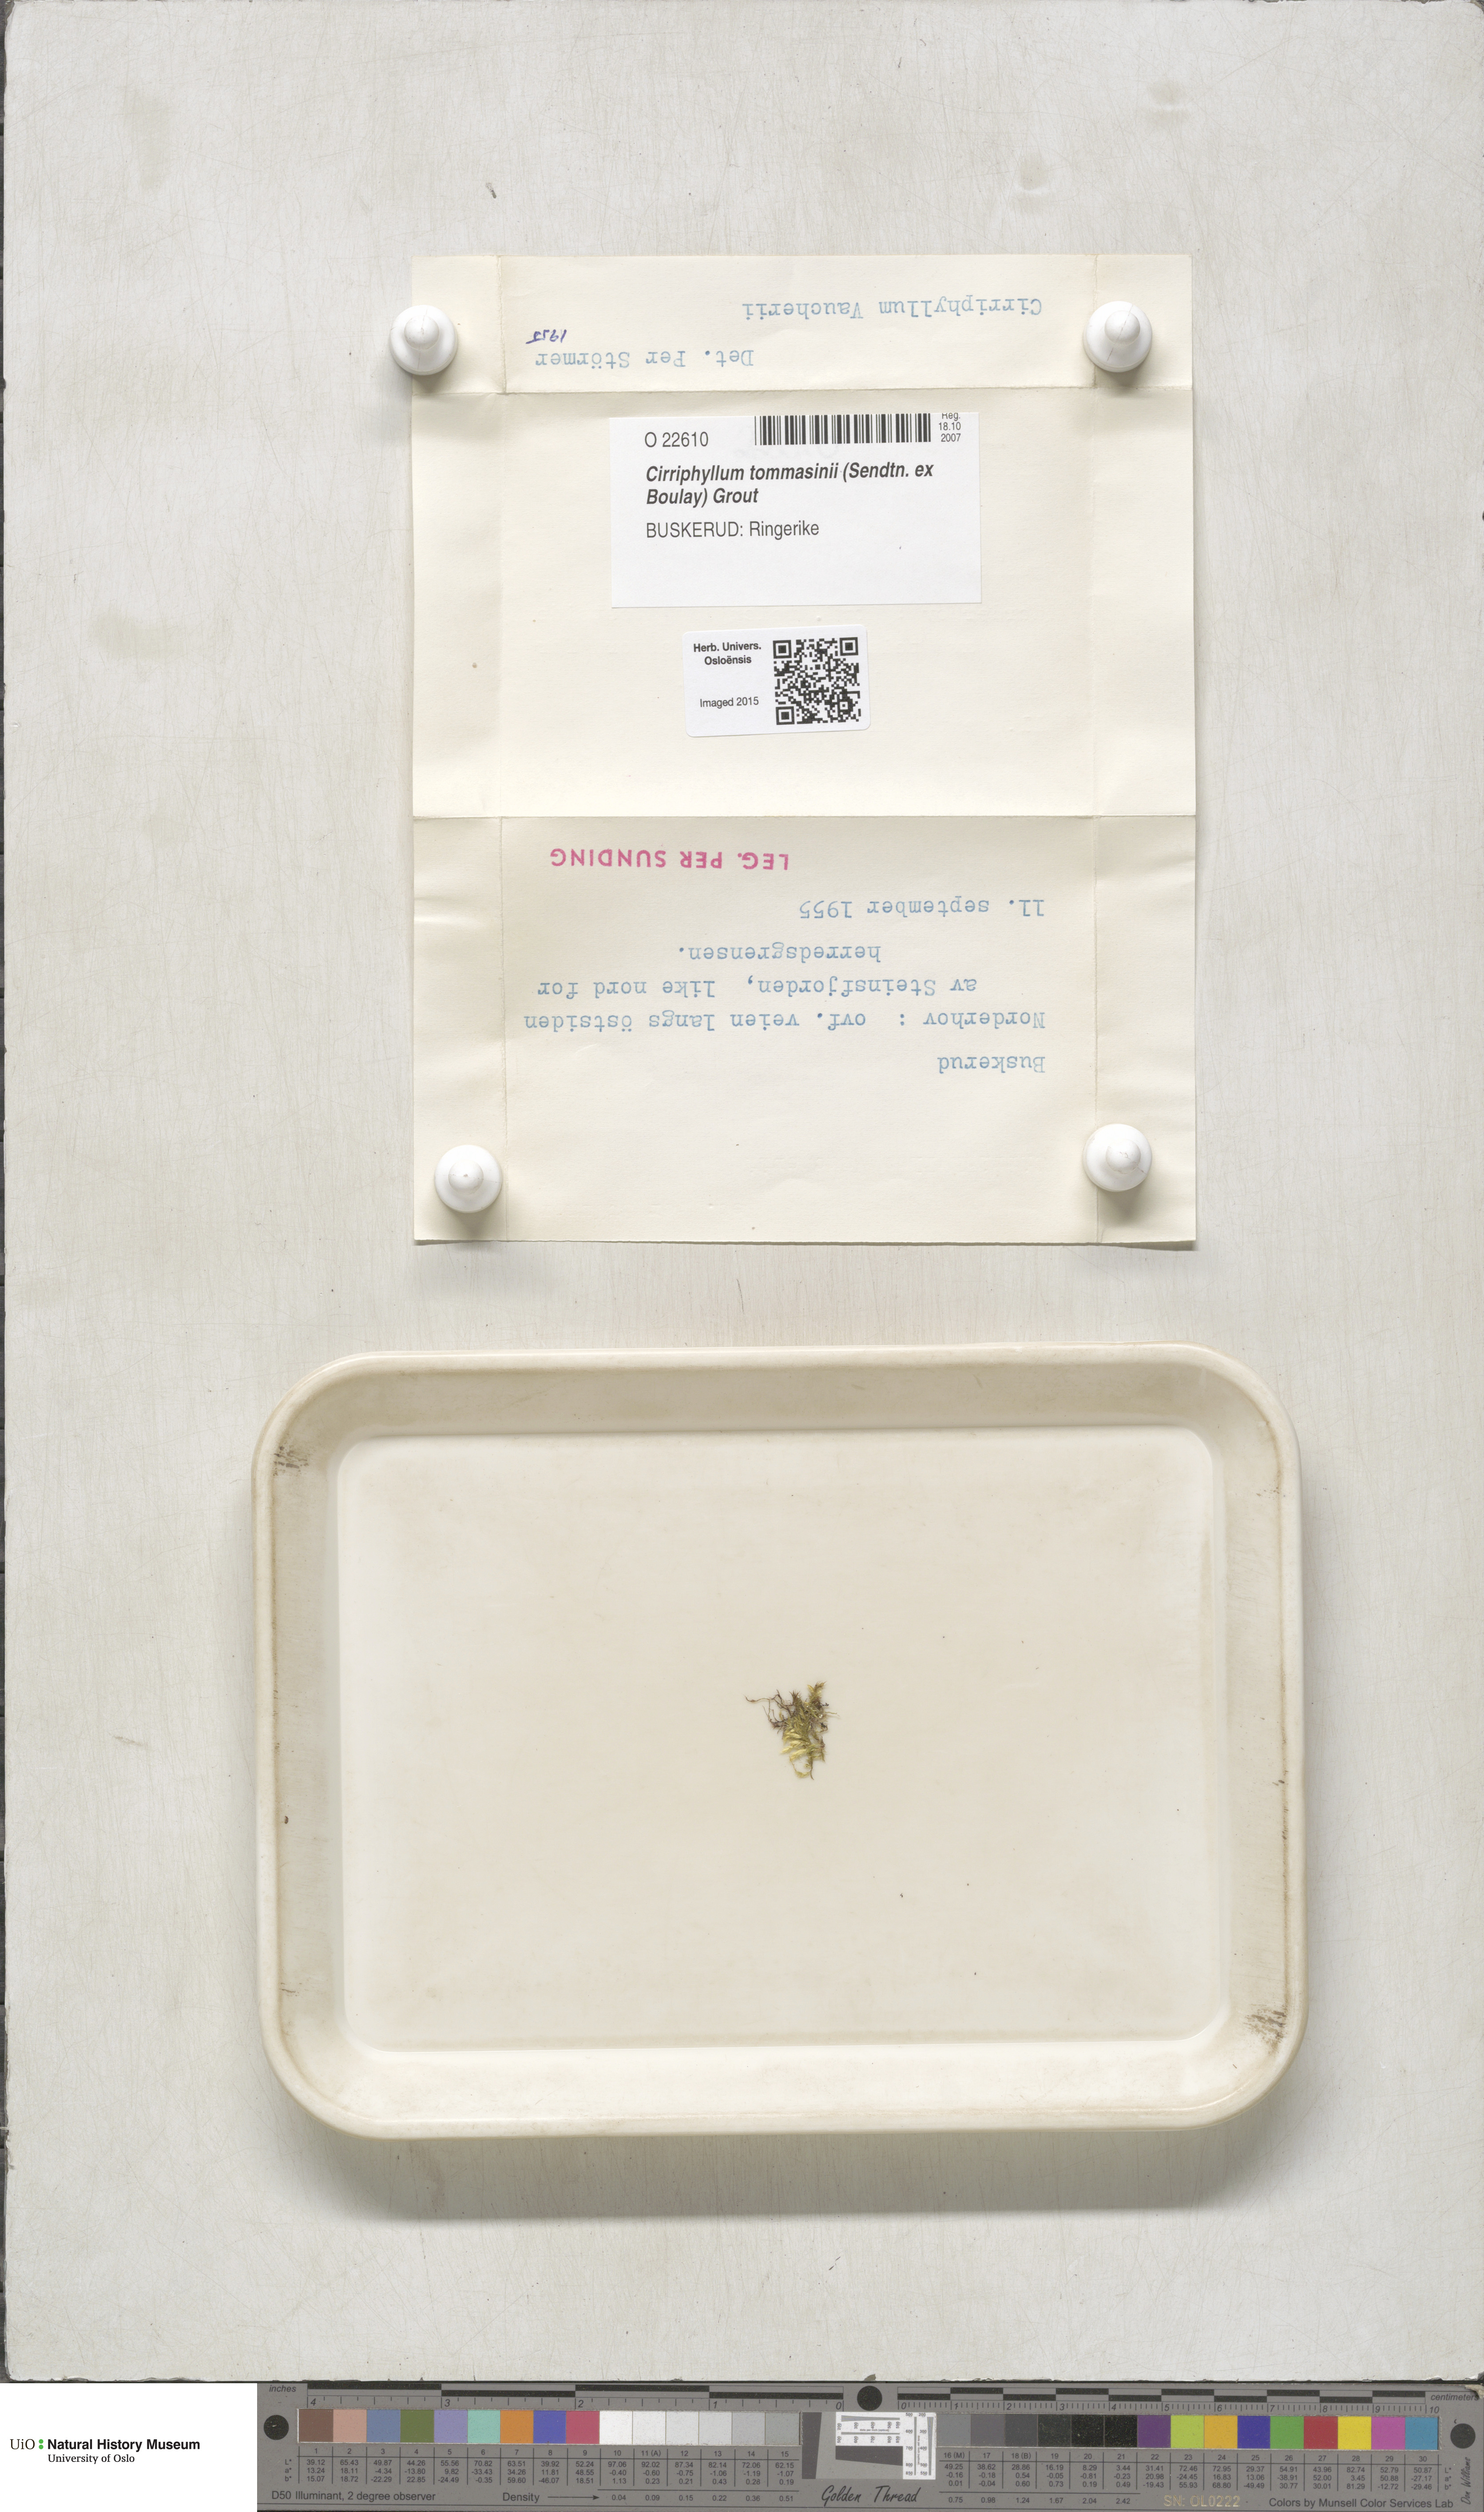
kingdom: Plantae
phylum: Bryophyta
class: Bryopsida
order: Hypnales
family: Brachytheciaceae
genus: Brachythecium
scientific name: Brachythecium tommasinii
